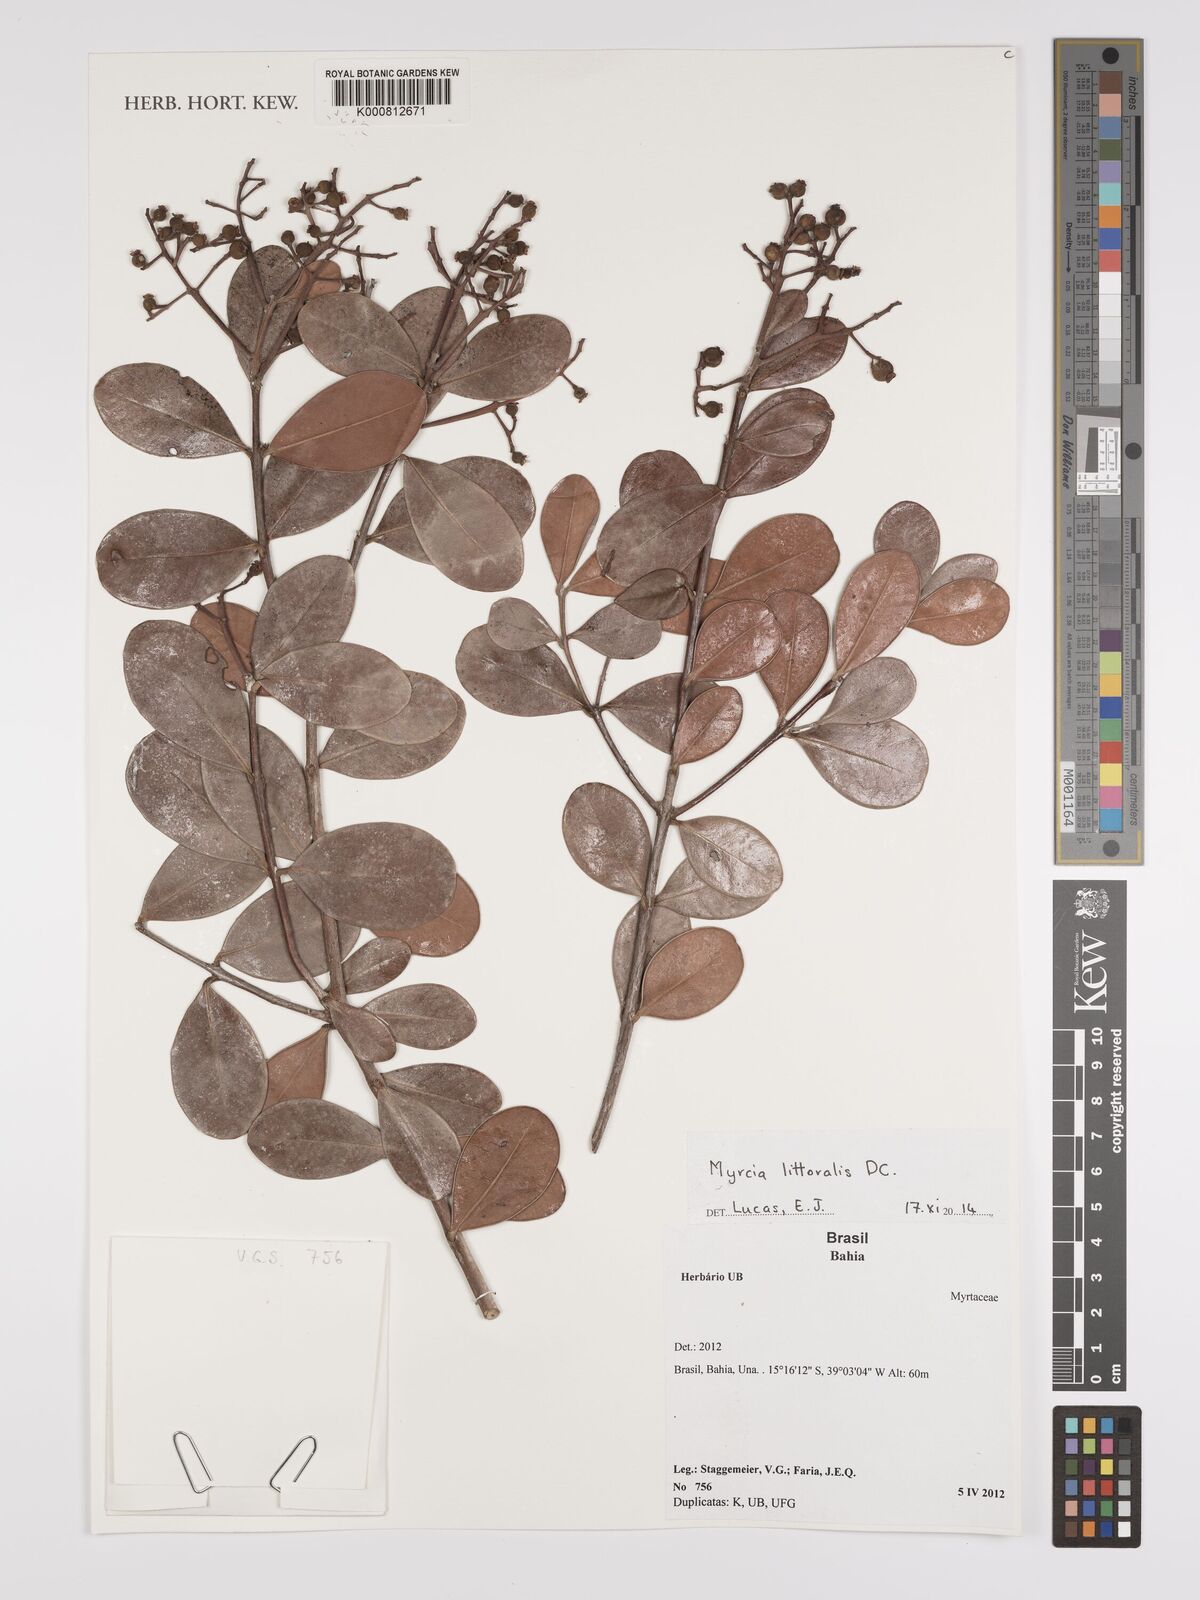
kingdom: Plantae
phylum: Tracheophyta
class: Magnoliopsida
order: Myrtales
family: Myrtaceae
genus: Myrcia
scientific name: Myrcia littoralis
